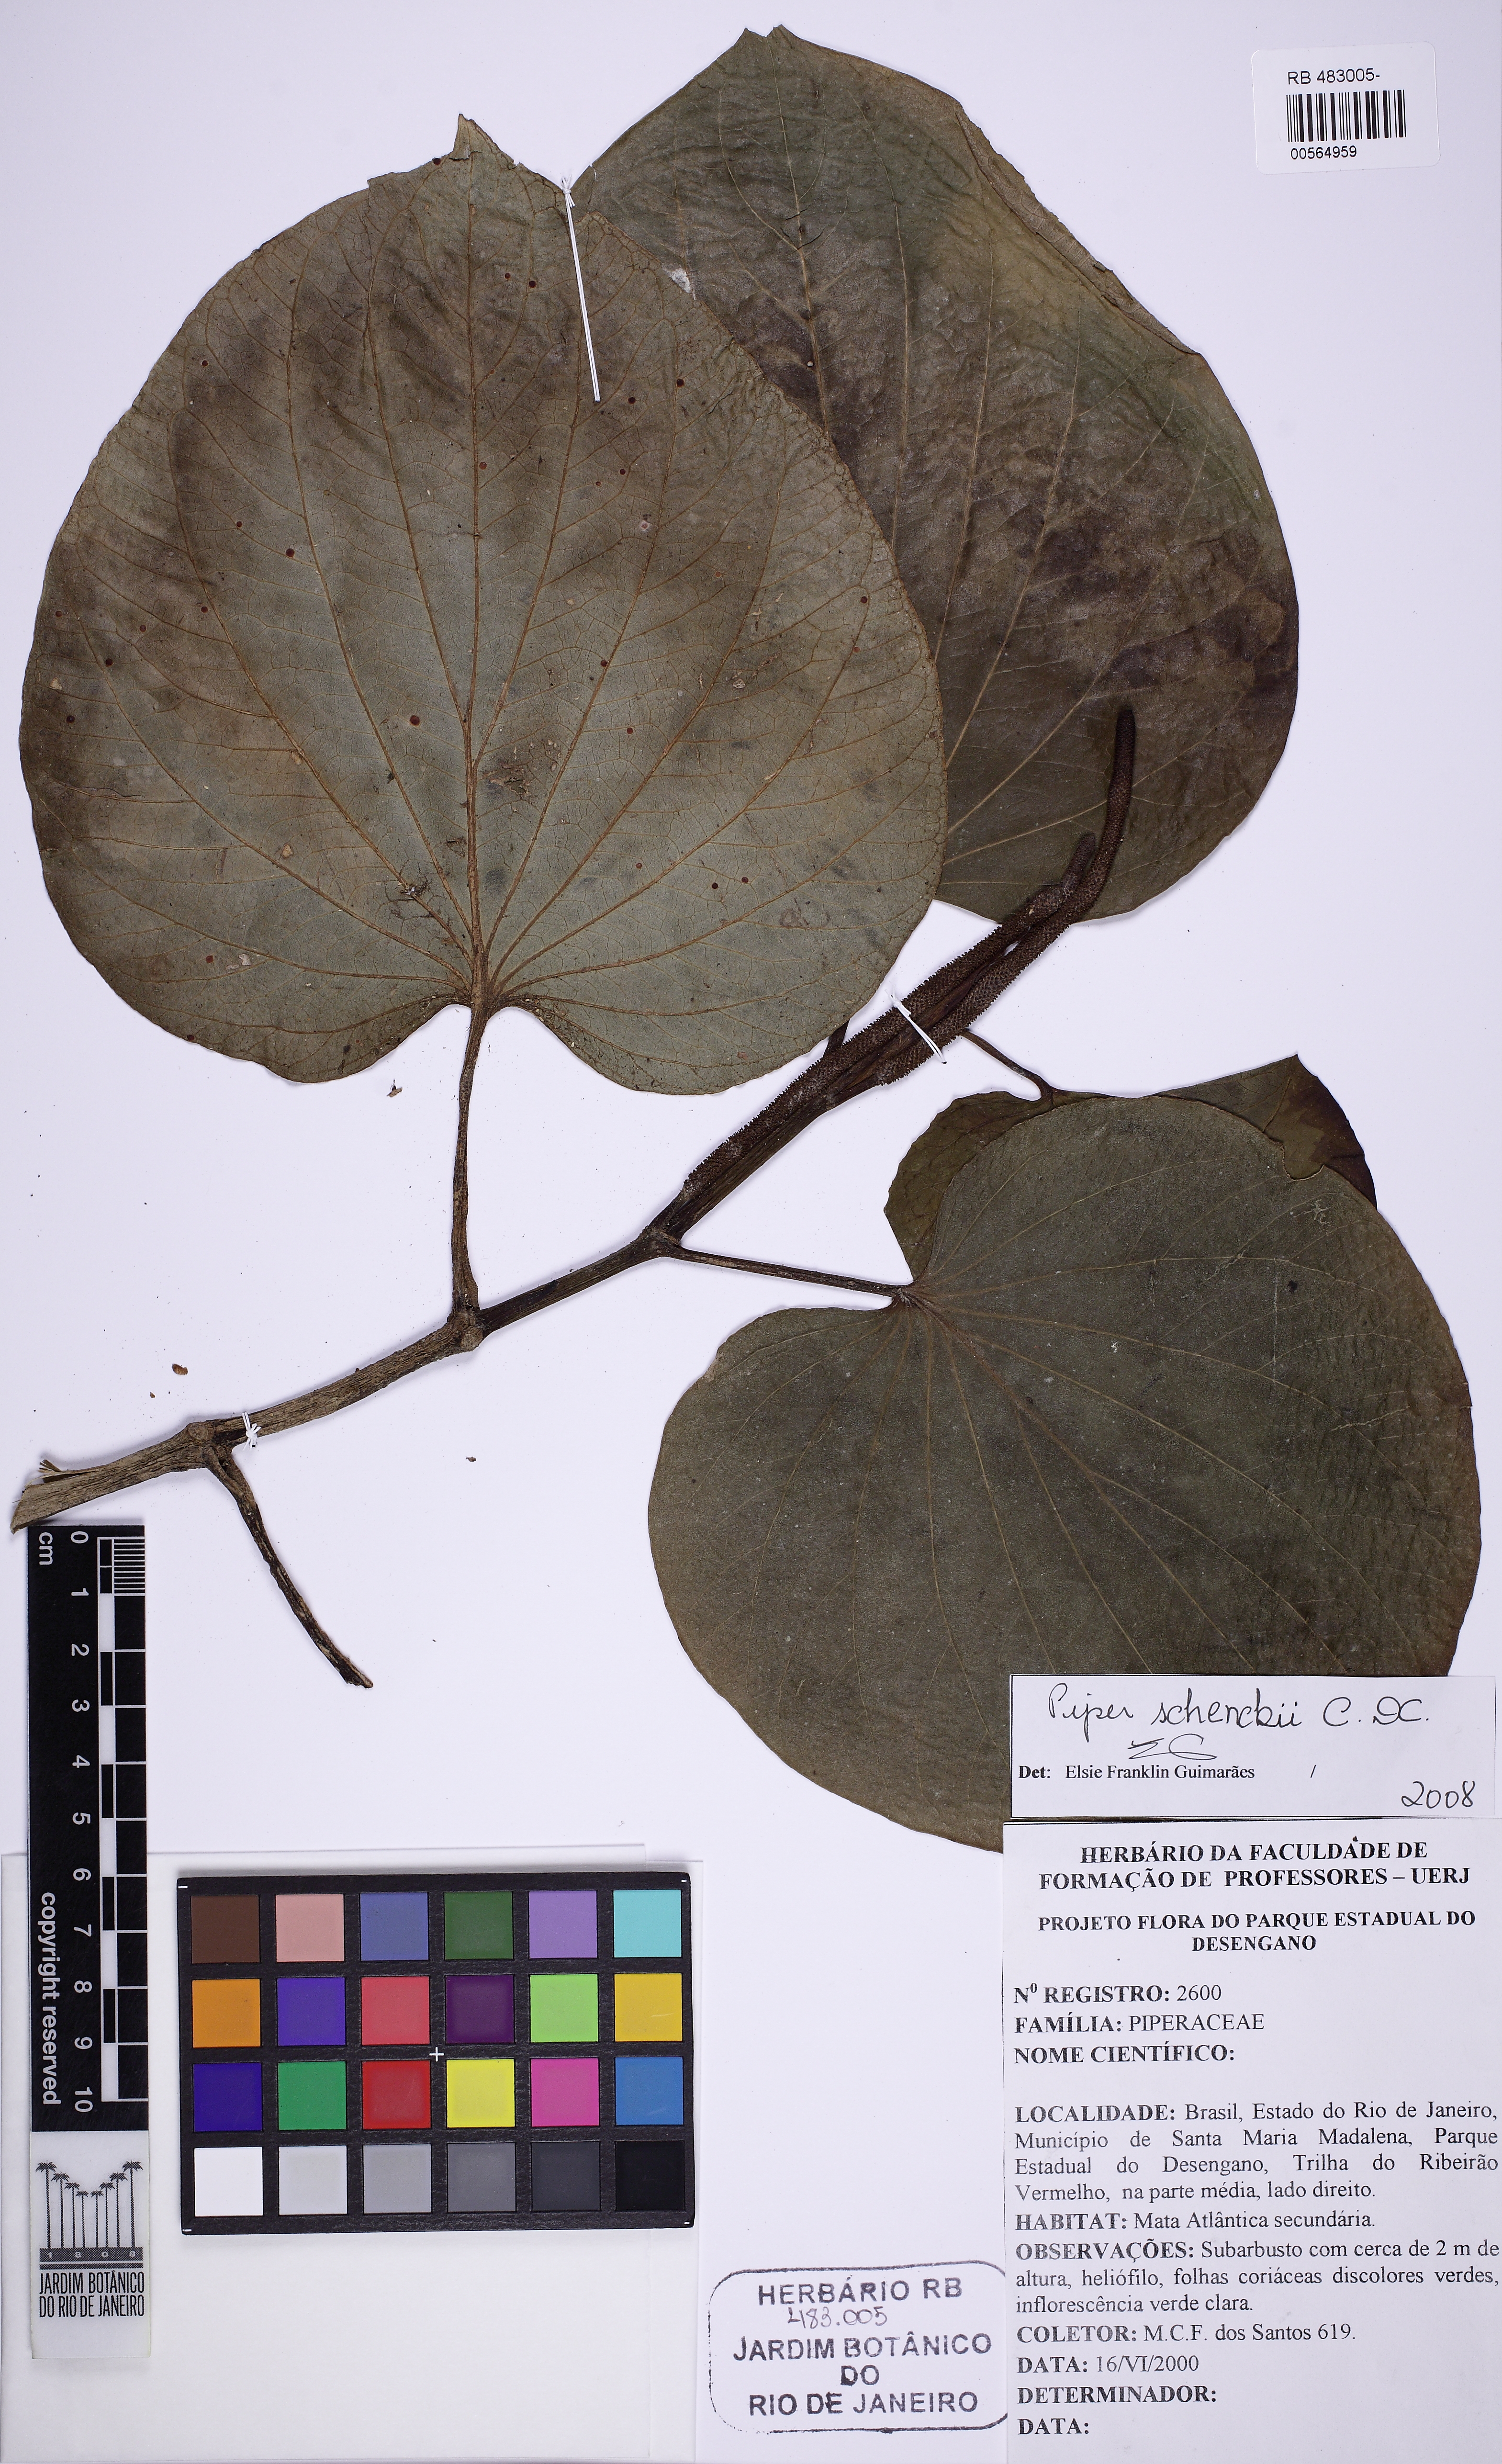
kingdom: Plantae
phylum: Tracheophyta
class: Magnoliopsida
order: Piperales
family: Piperaceae
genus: Piper
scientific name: Piper schenckii
